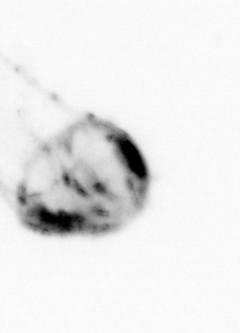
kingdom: Animalia
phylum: Chaetognatha
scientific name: Chaetognatha
